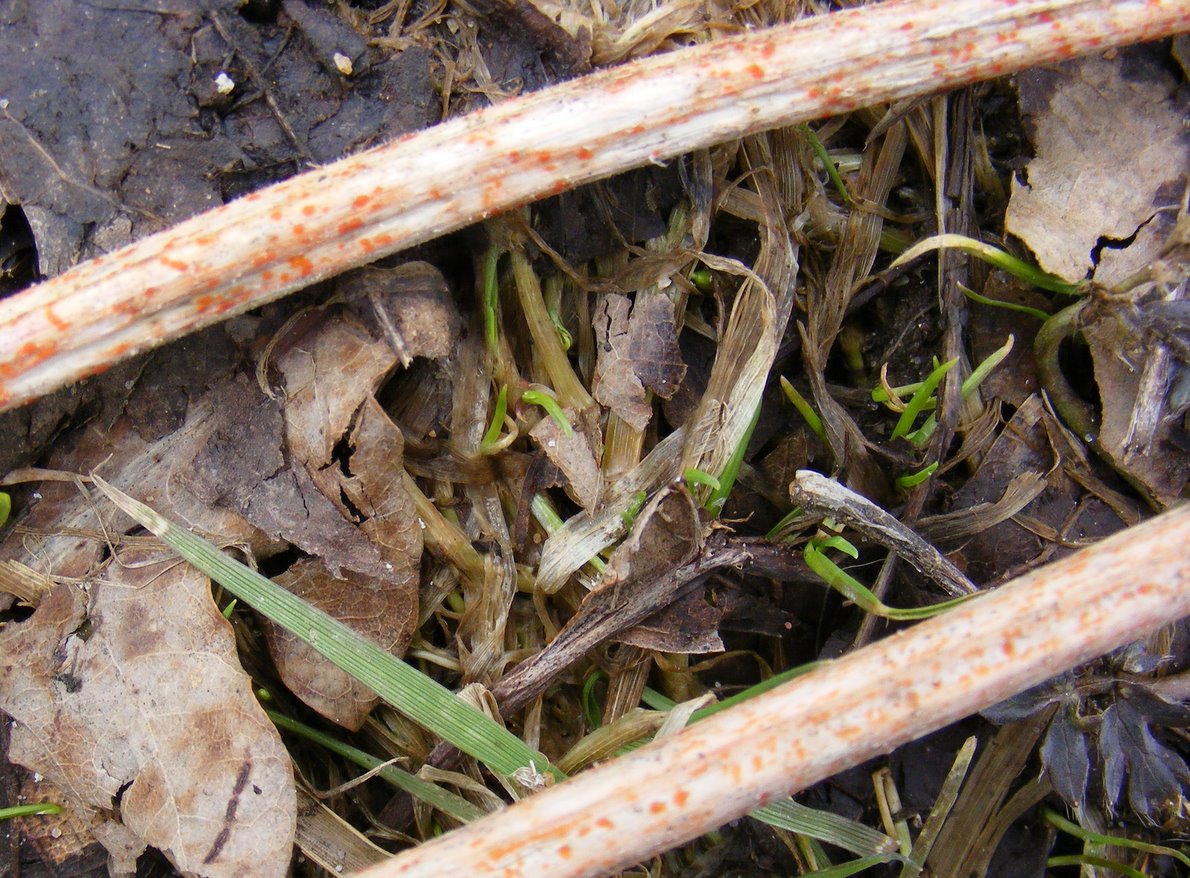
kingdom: Fungi
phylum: Ascomycota
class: Leotiomycetes
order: Helotiales
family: Calloriaceae
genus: Calloria
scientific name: Calloria urticae
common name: nælde-orangeskive
